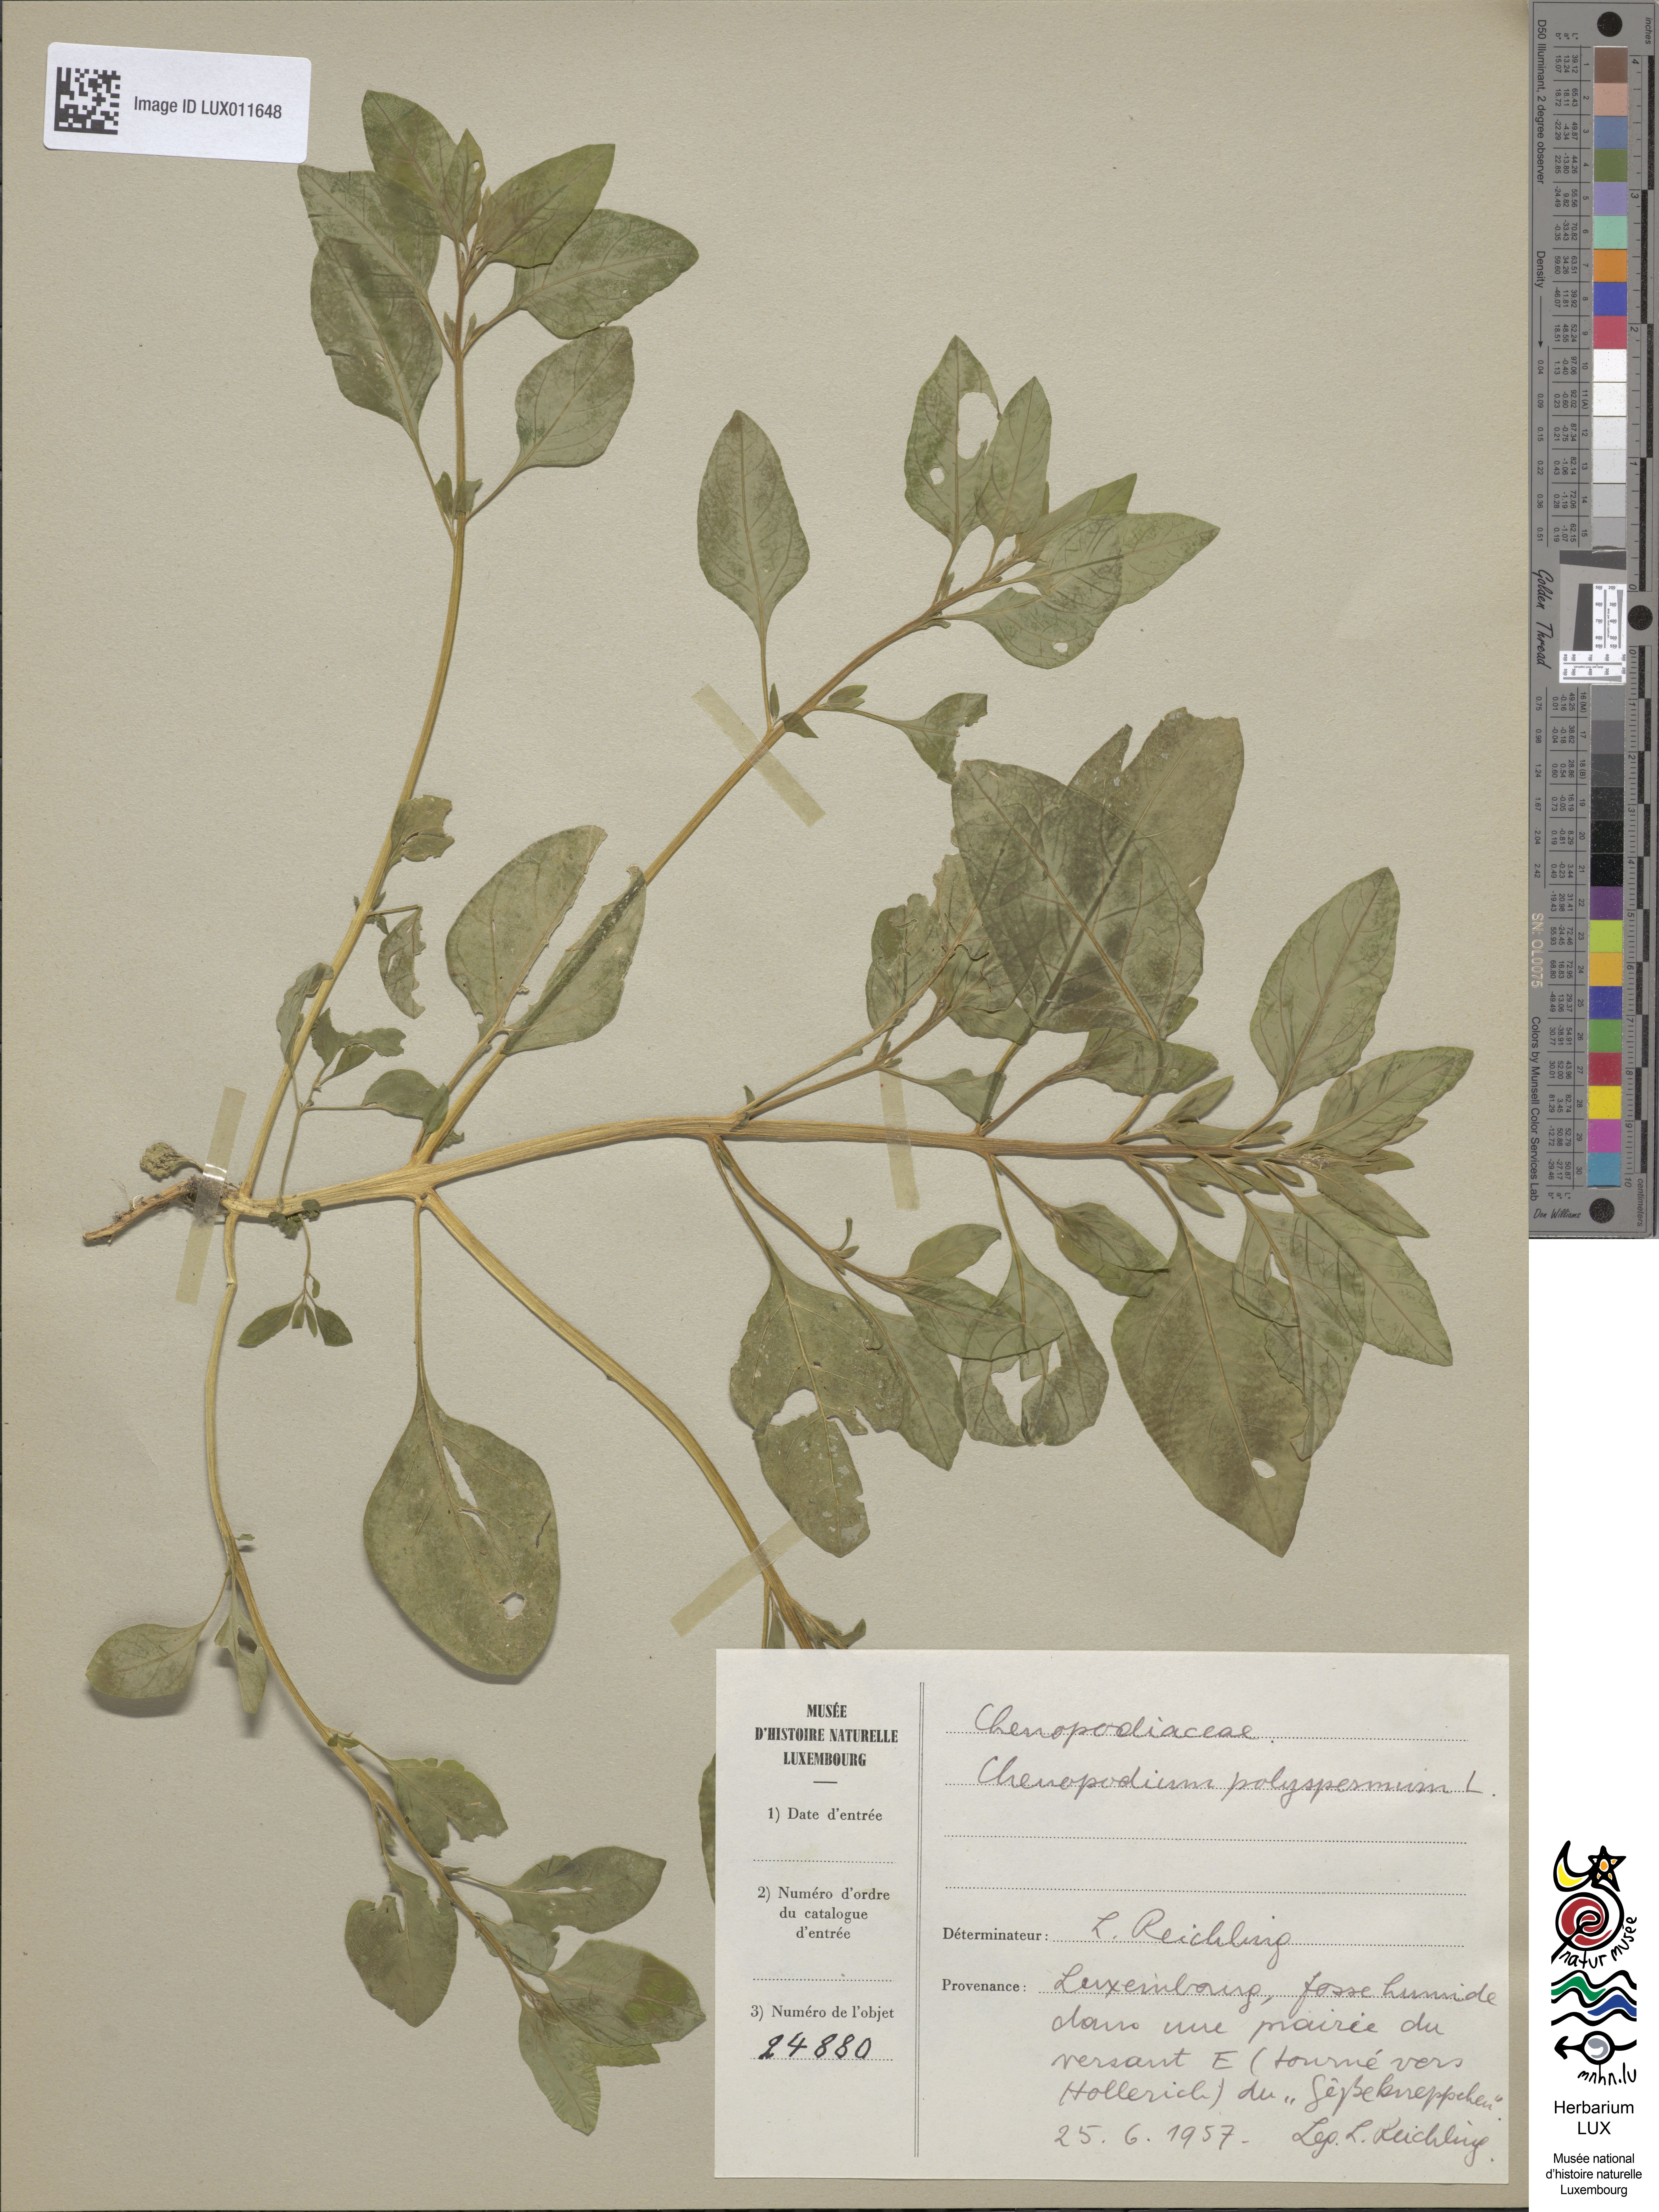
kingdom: Plantae
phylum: Tracheophyta
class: Magnoliopsida
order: Caryophyllales
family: Amaranthaceae
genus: Lipandra
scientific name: Lipandra polysperma
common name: Many-seed goosefoot
